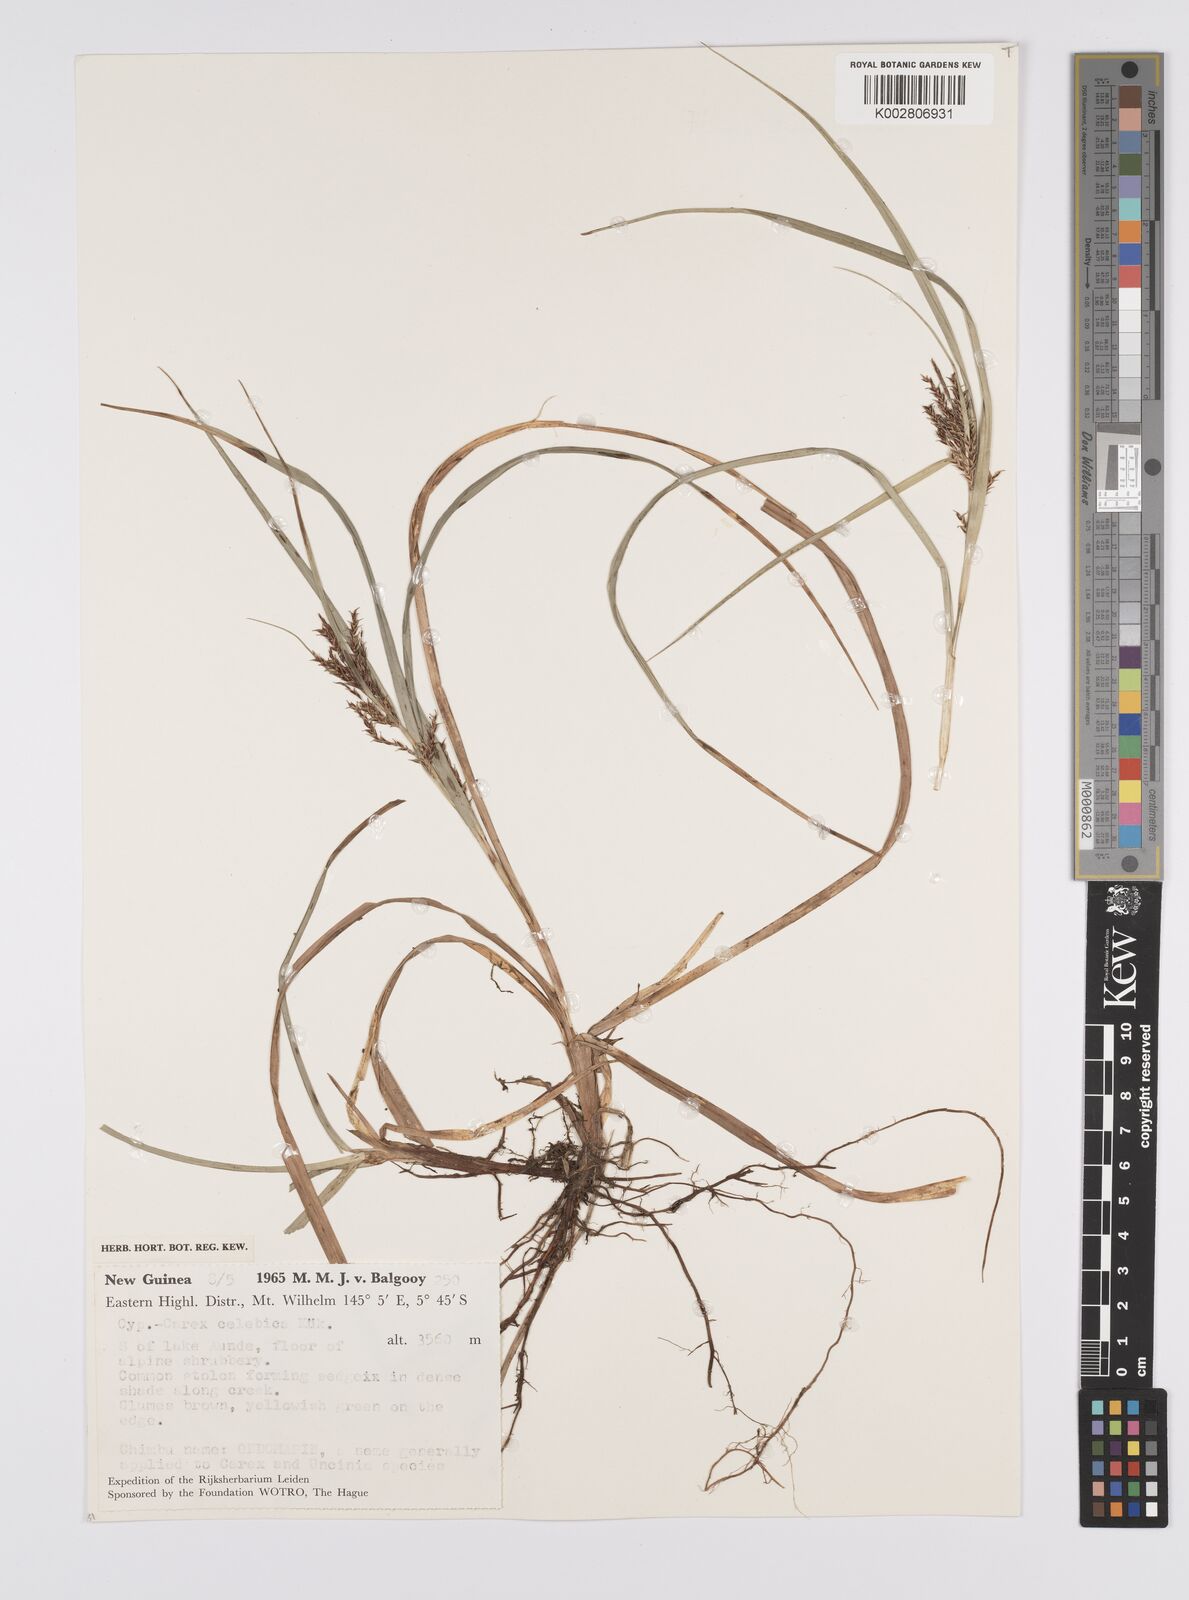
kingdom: Plantae
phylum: Tracheophyta
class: Liliopsida
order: Poales
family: Cyperaceae
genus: Carex
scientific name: Carex celebica
